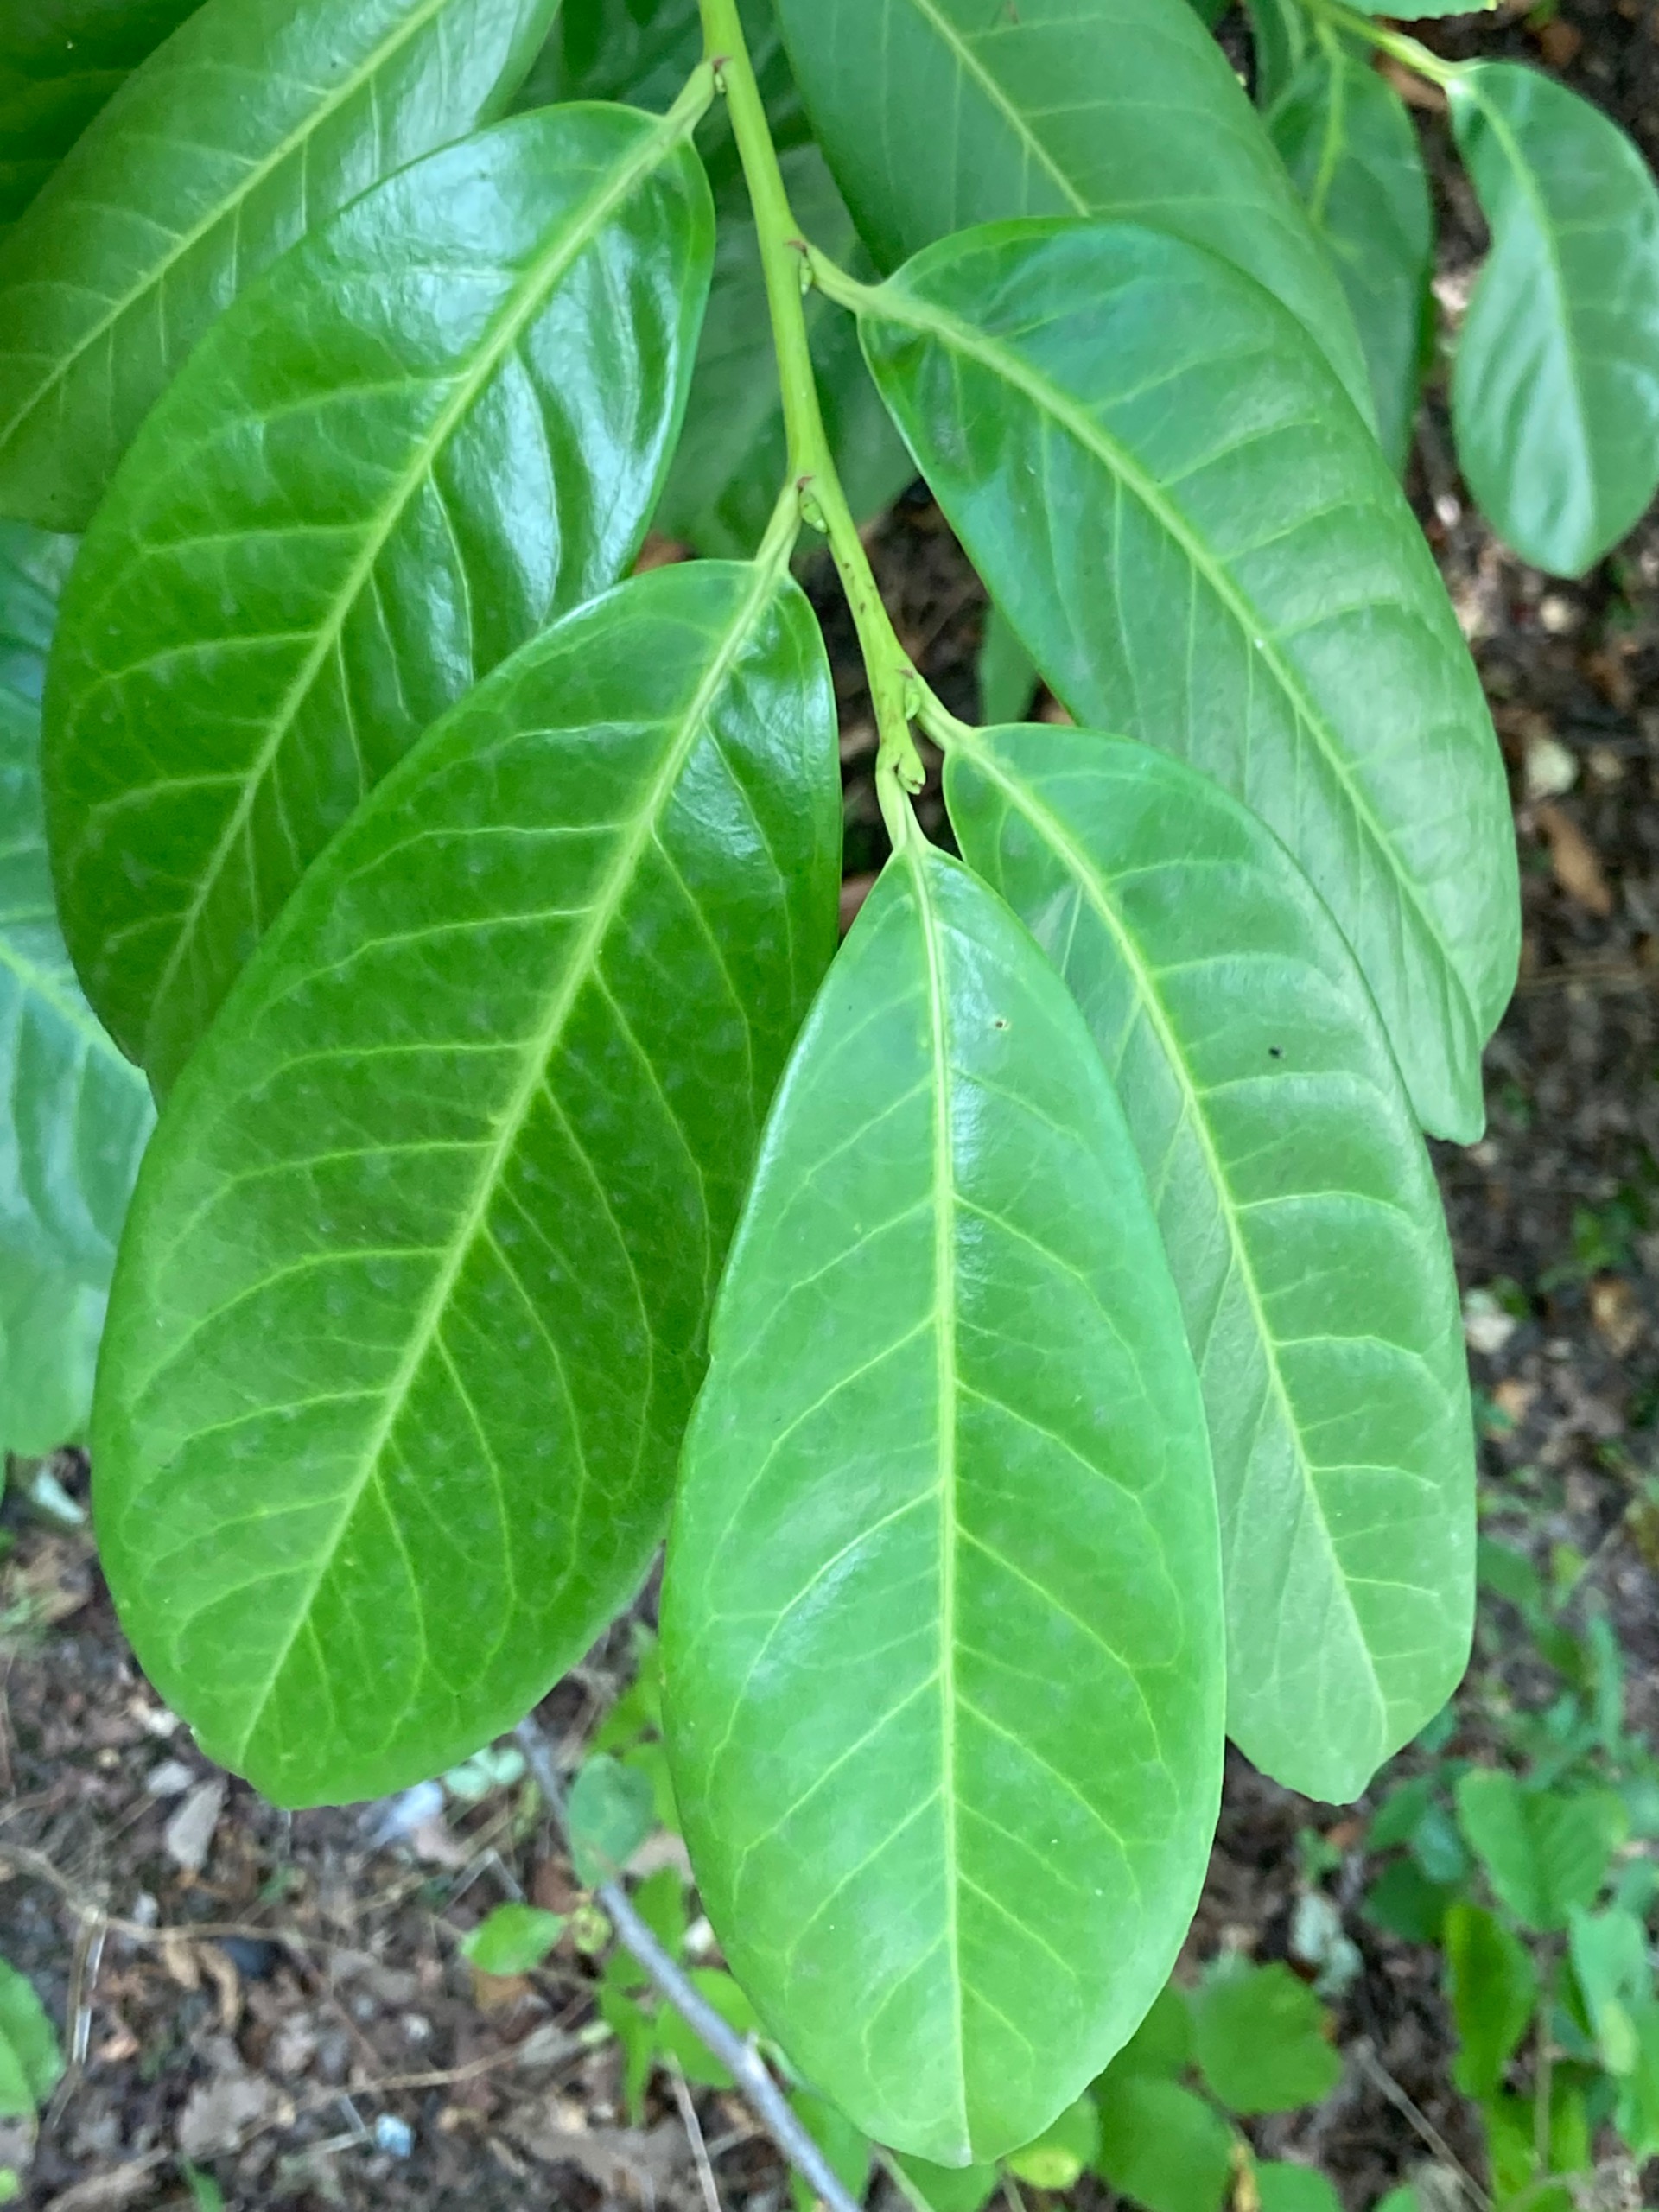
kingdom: Plantae
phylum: Tracheophyta
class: Magnoliopsida
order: Rosales
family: Rosaceae
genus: Prunus
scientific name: Prunus laurocerasus
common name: Laurbærkirsebær
